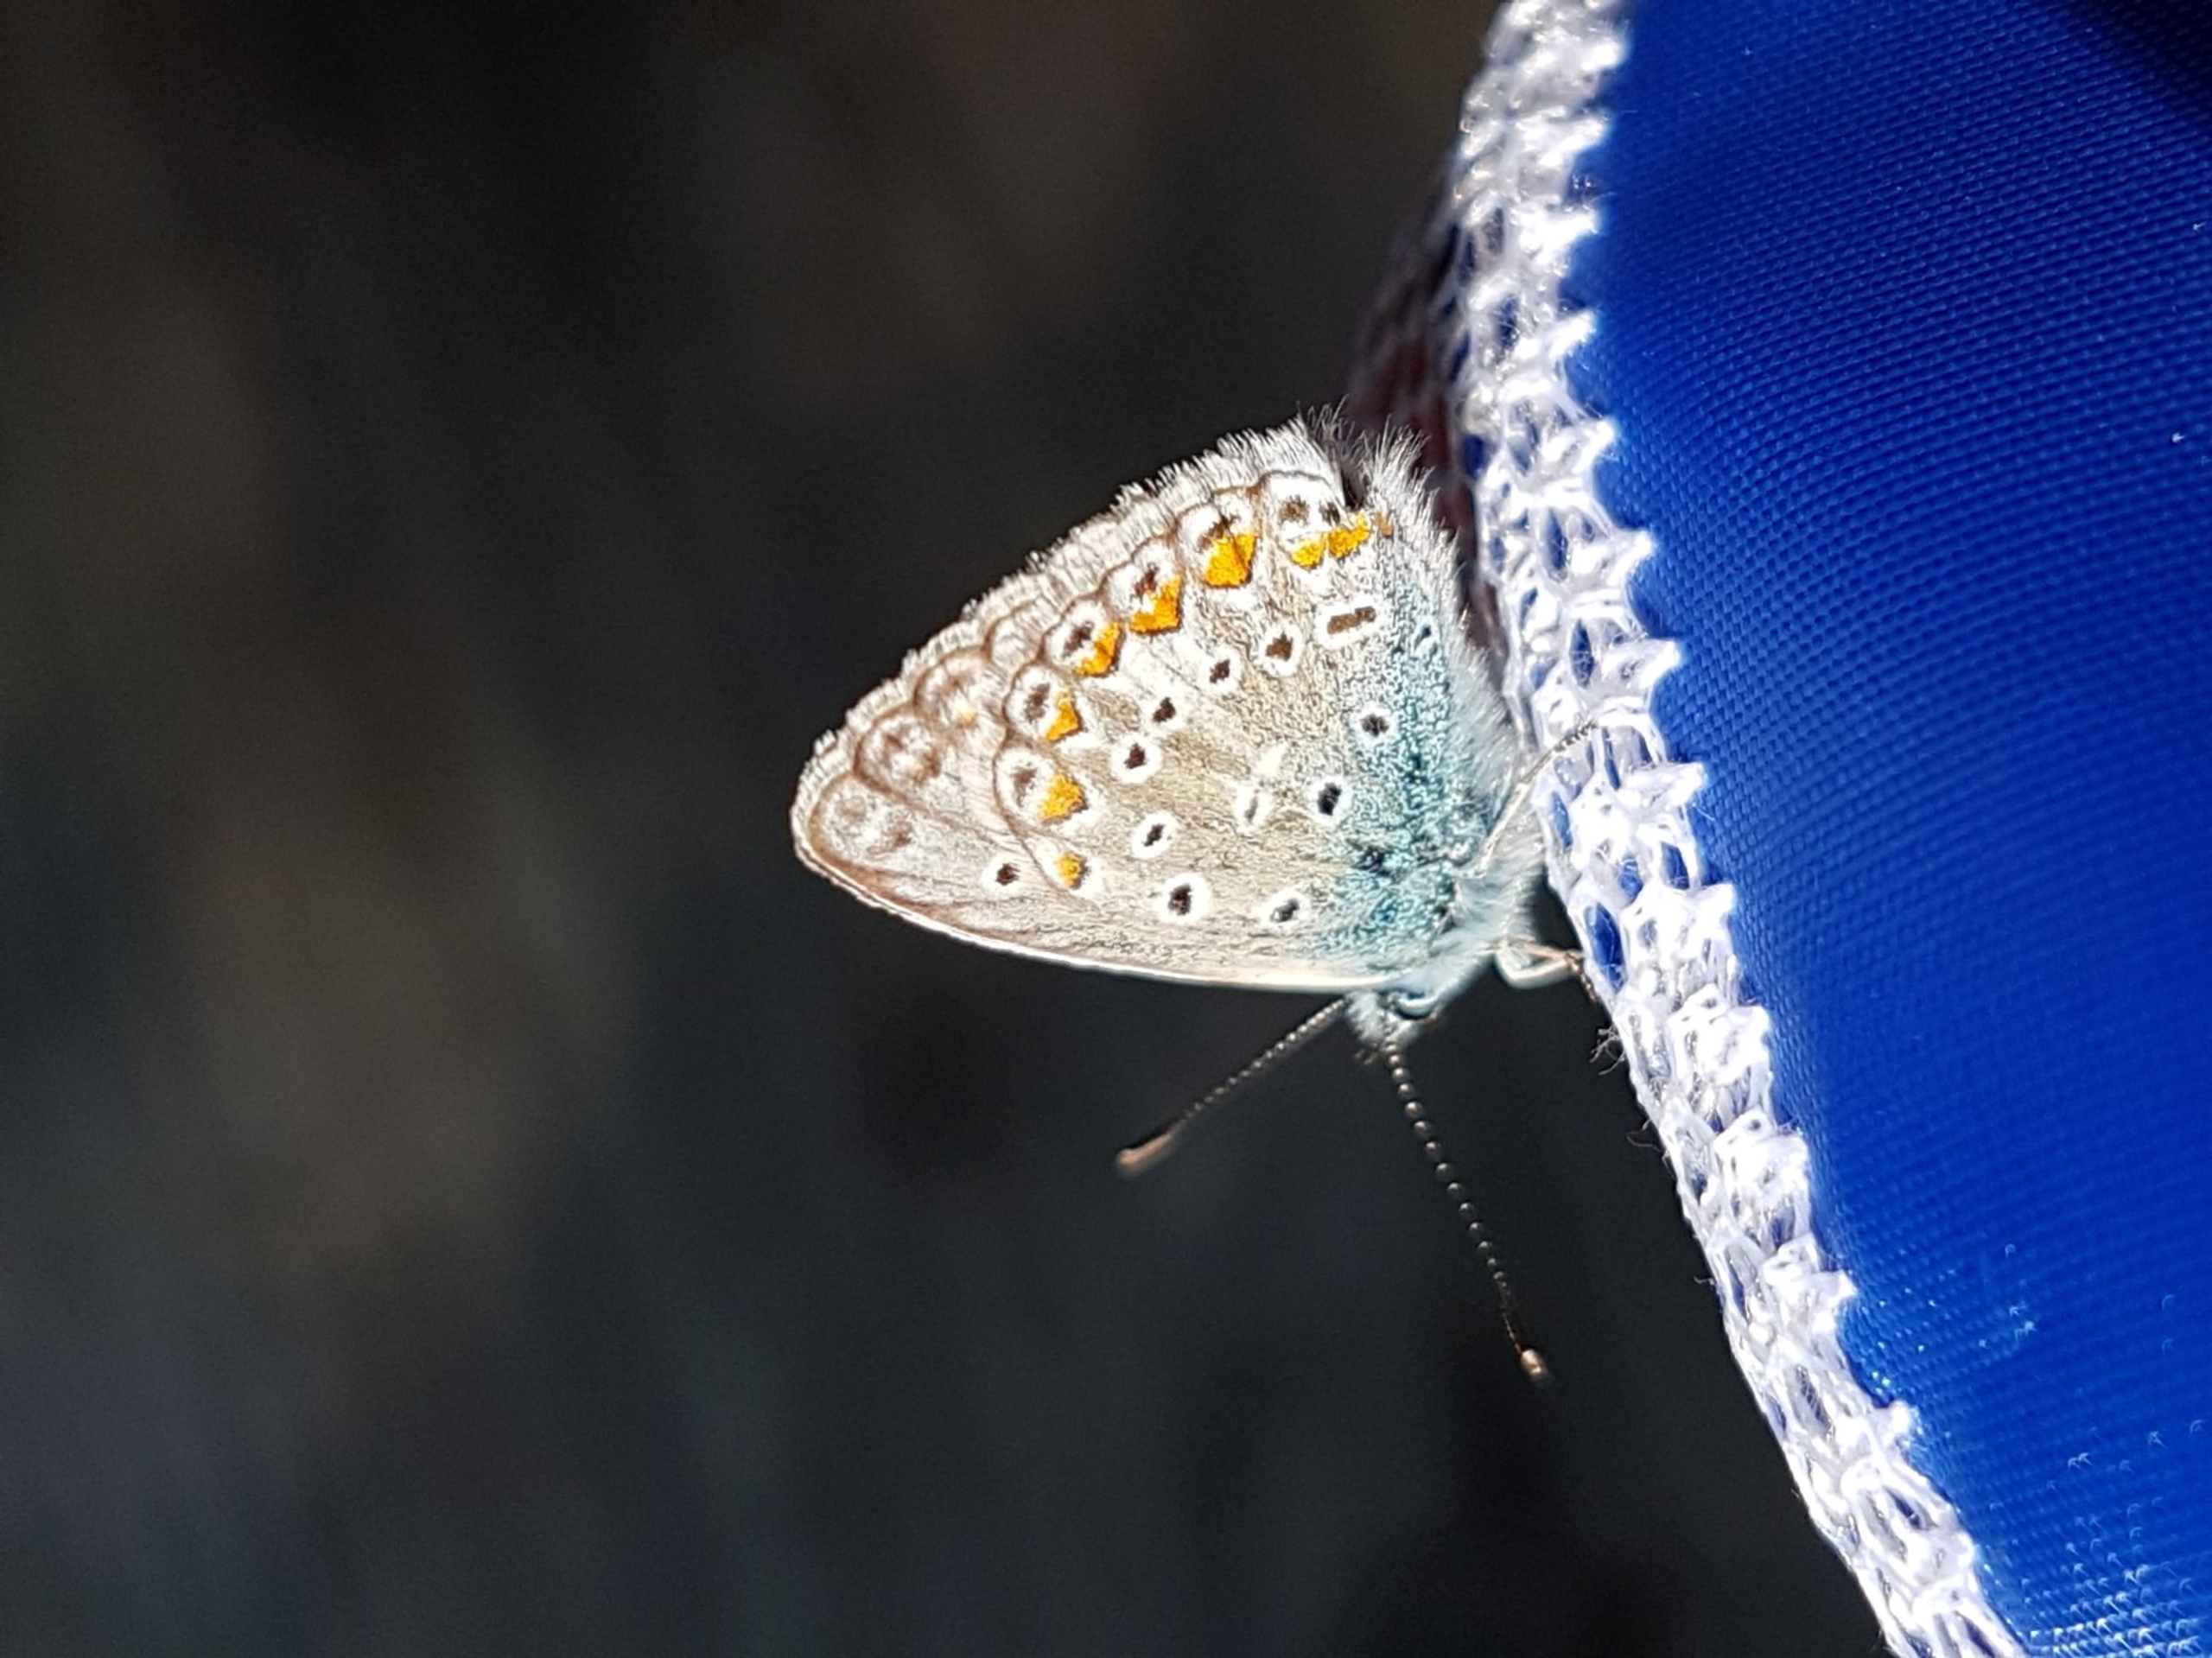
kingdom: Animalia
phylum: Arthropoda
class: Insecta
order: Lepidoptera
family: Lycaenidae
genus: Polyommatus
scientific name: Polyommatus icarus
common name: Almindelig blåfugl
